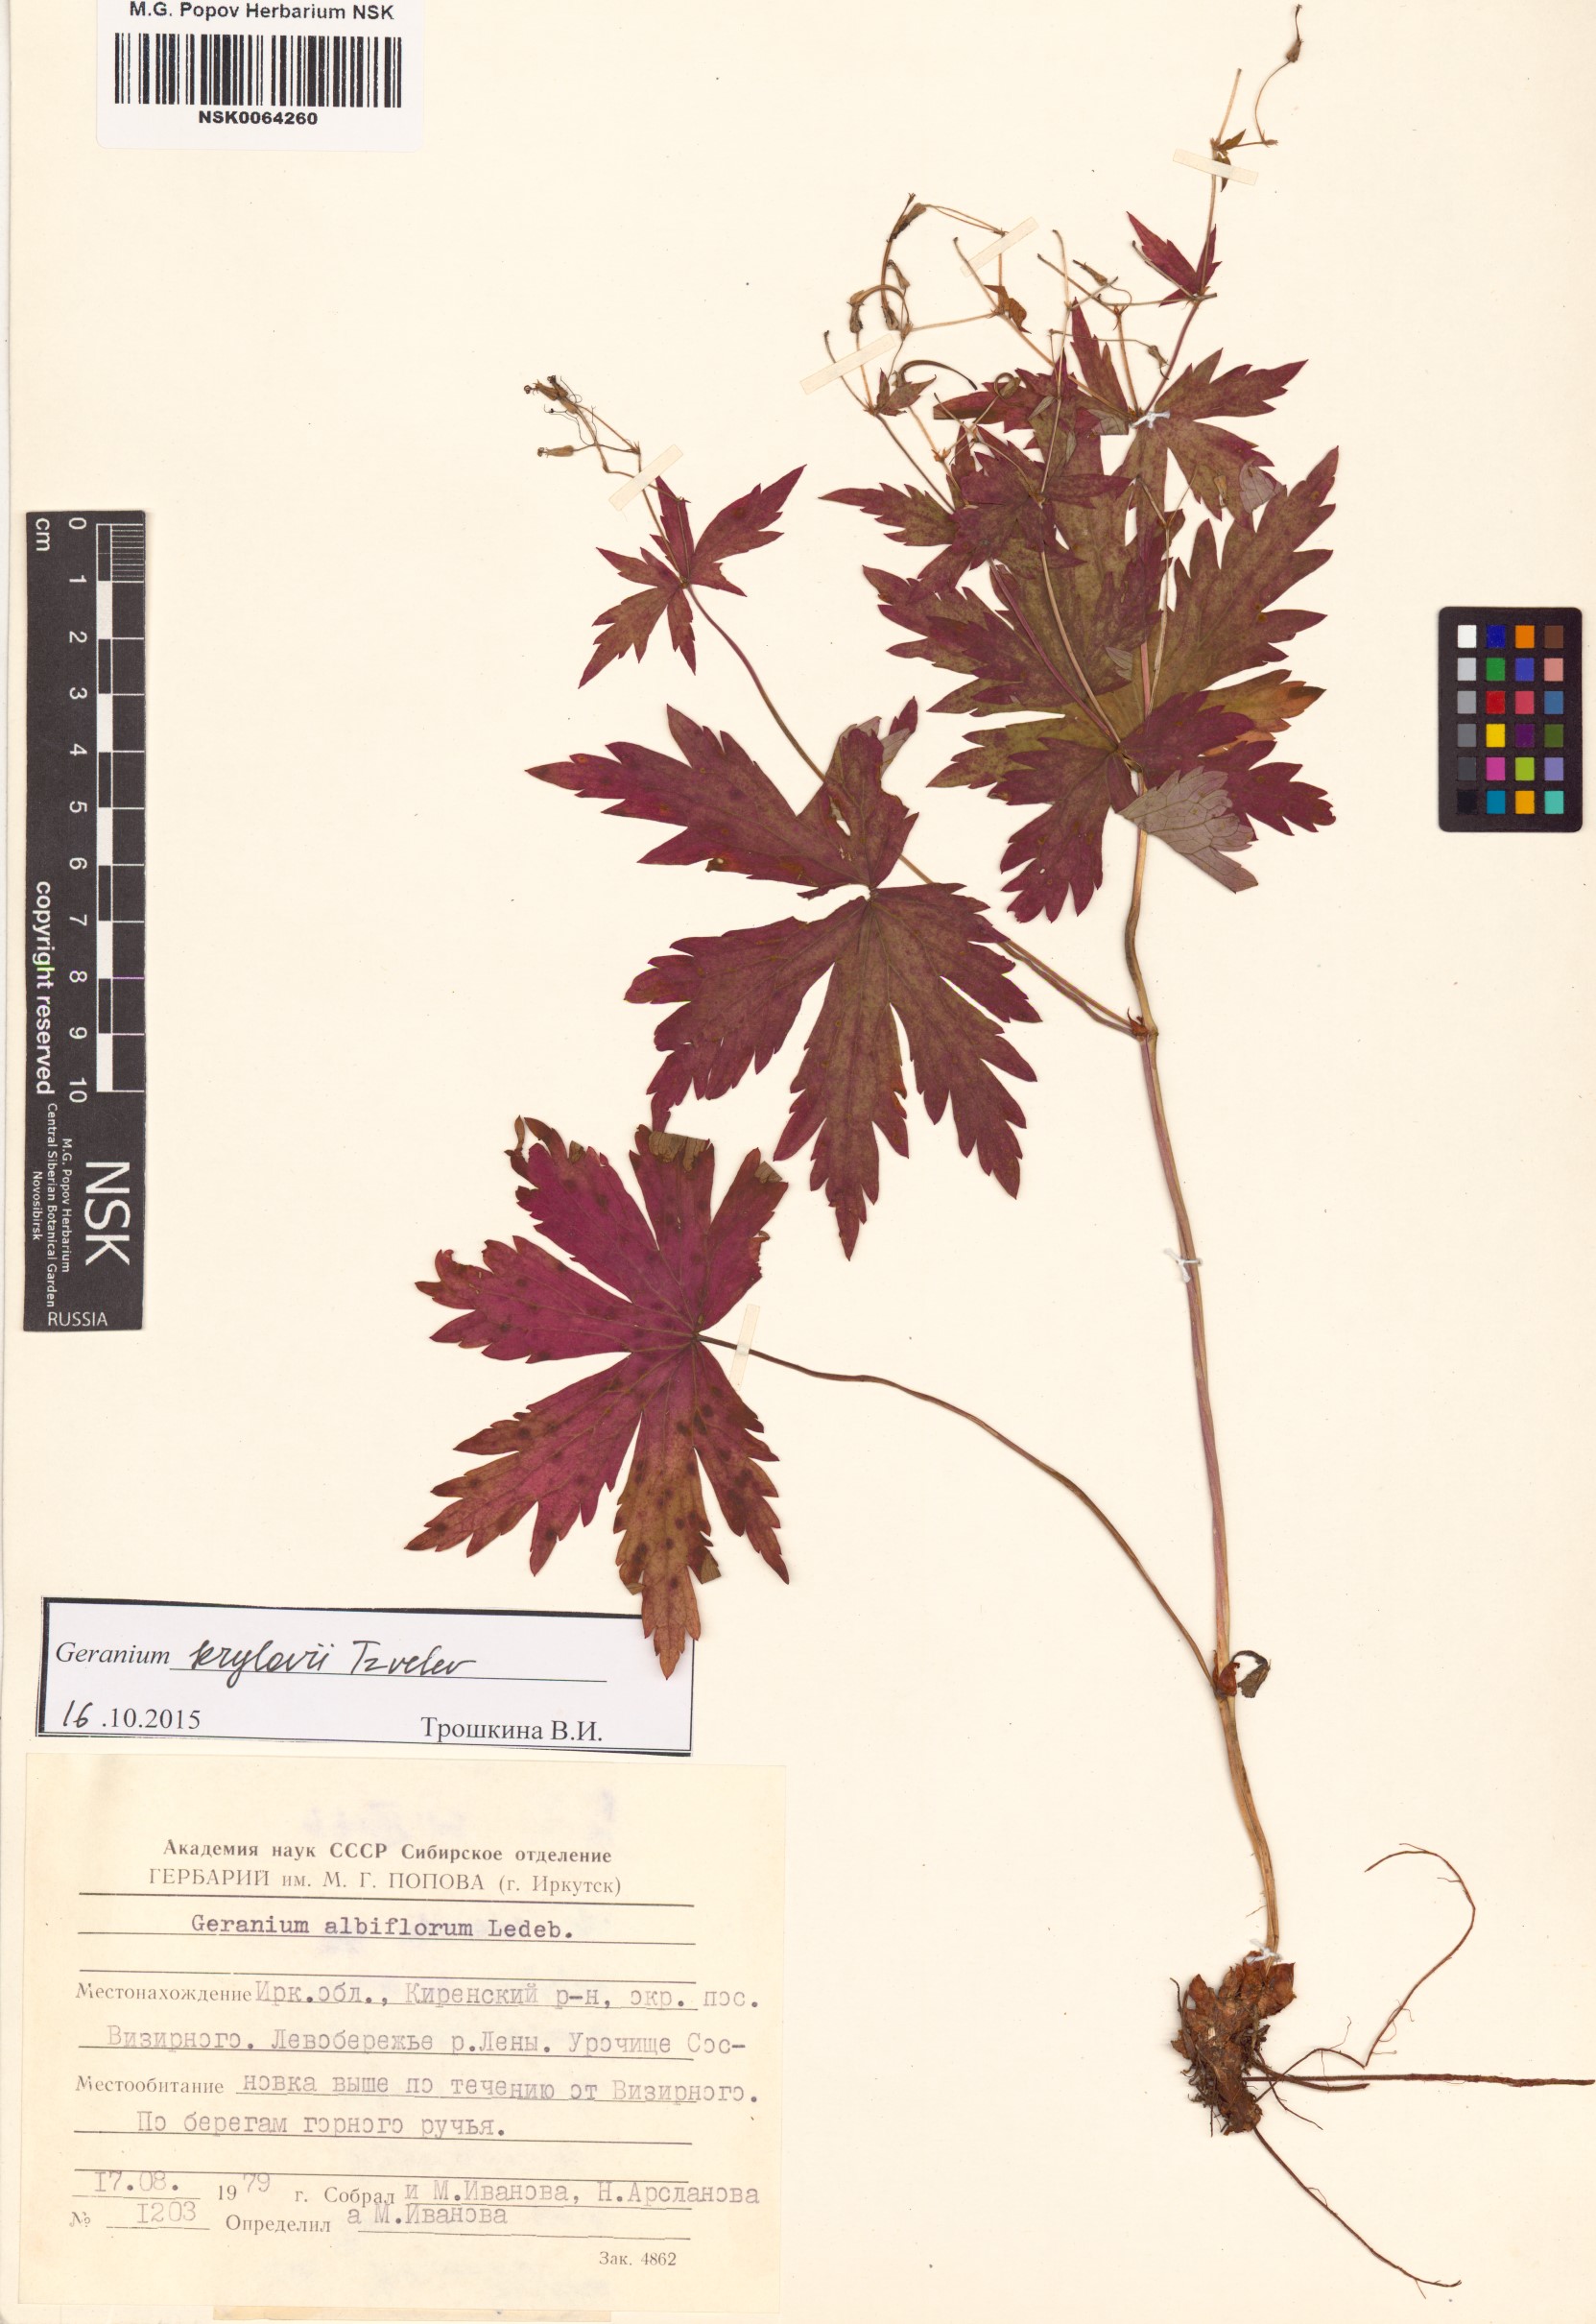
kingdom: Plantae
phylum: Tracheophyta
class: Magnoliopsida
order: Geraniales
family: Geraniaceae
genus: Geranium
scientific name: Geranium sylvaticum
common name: Wood crane's-bill
